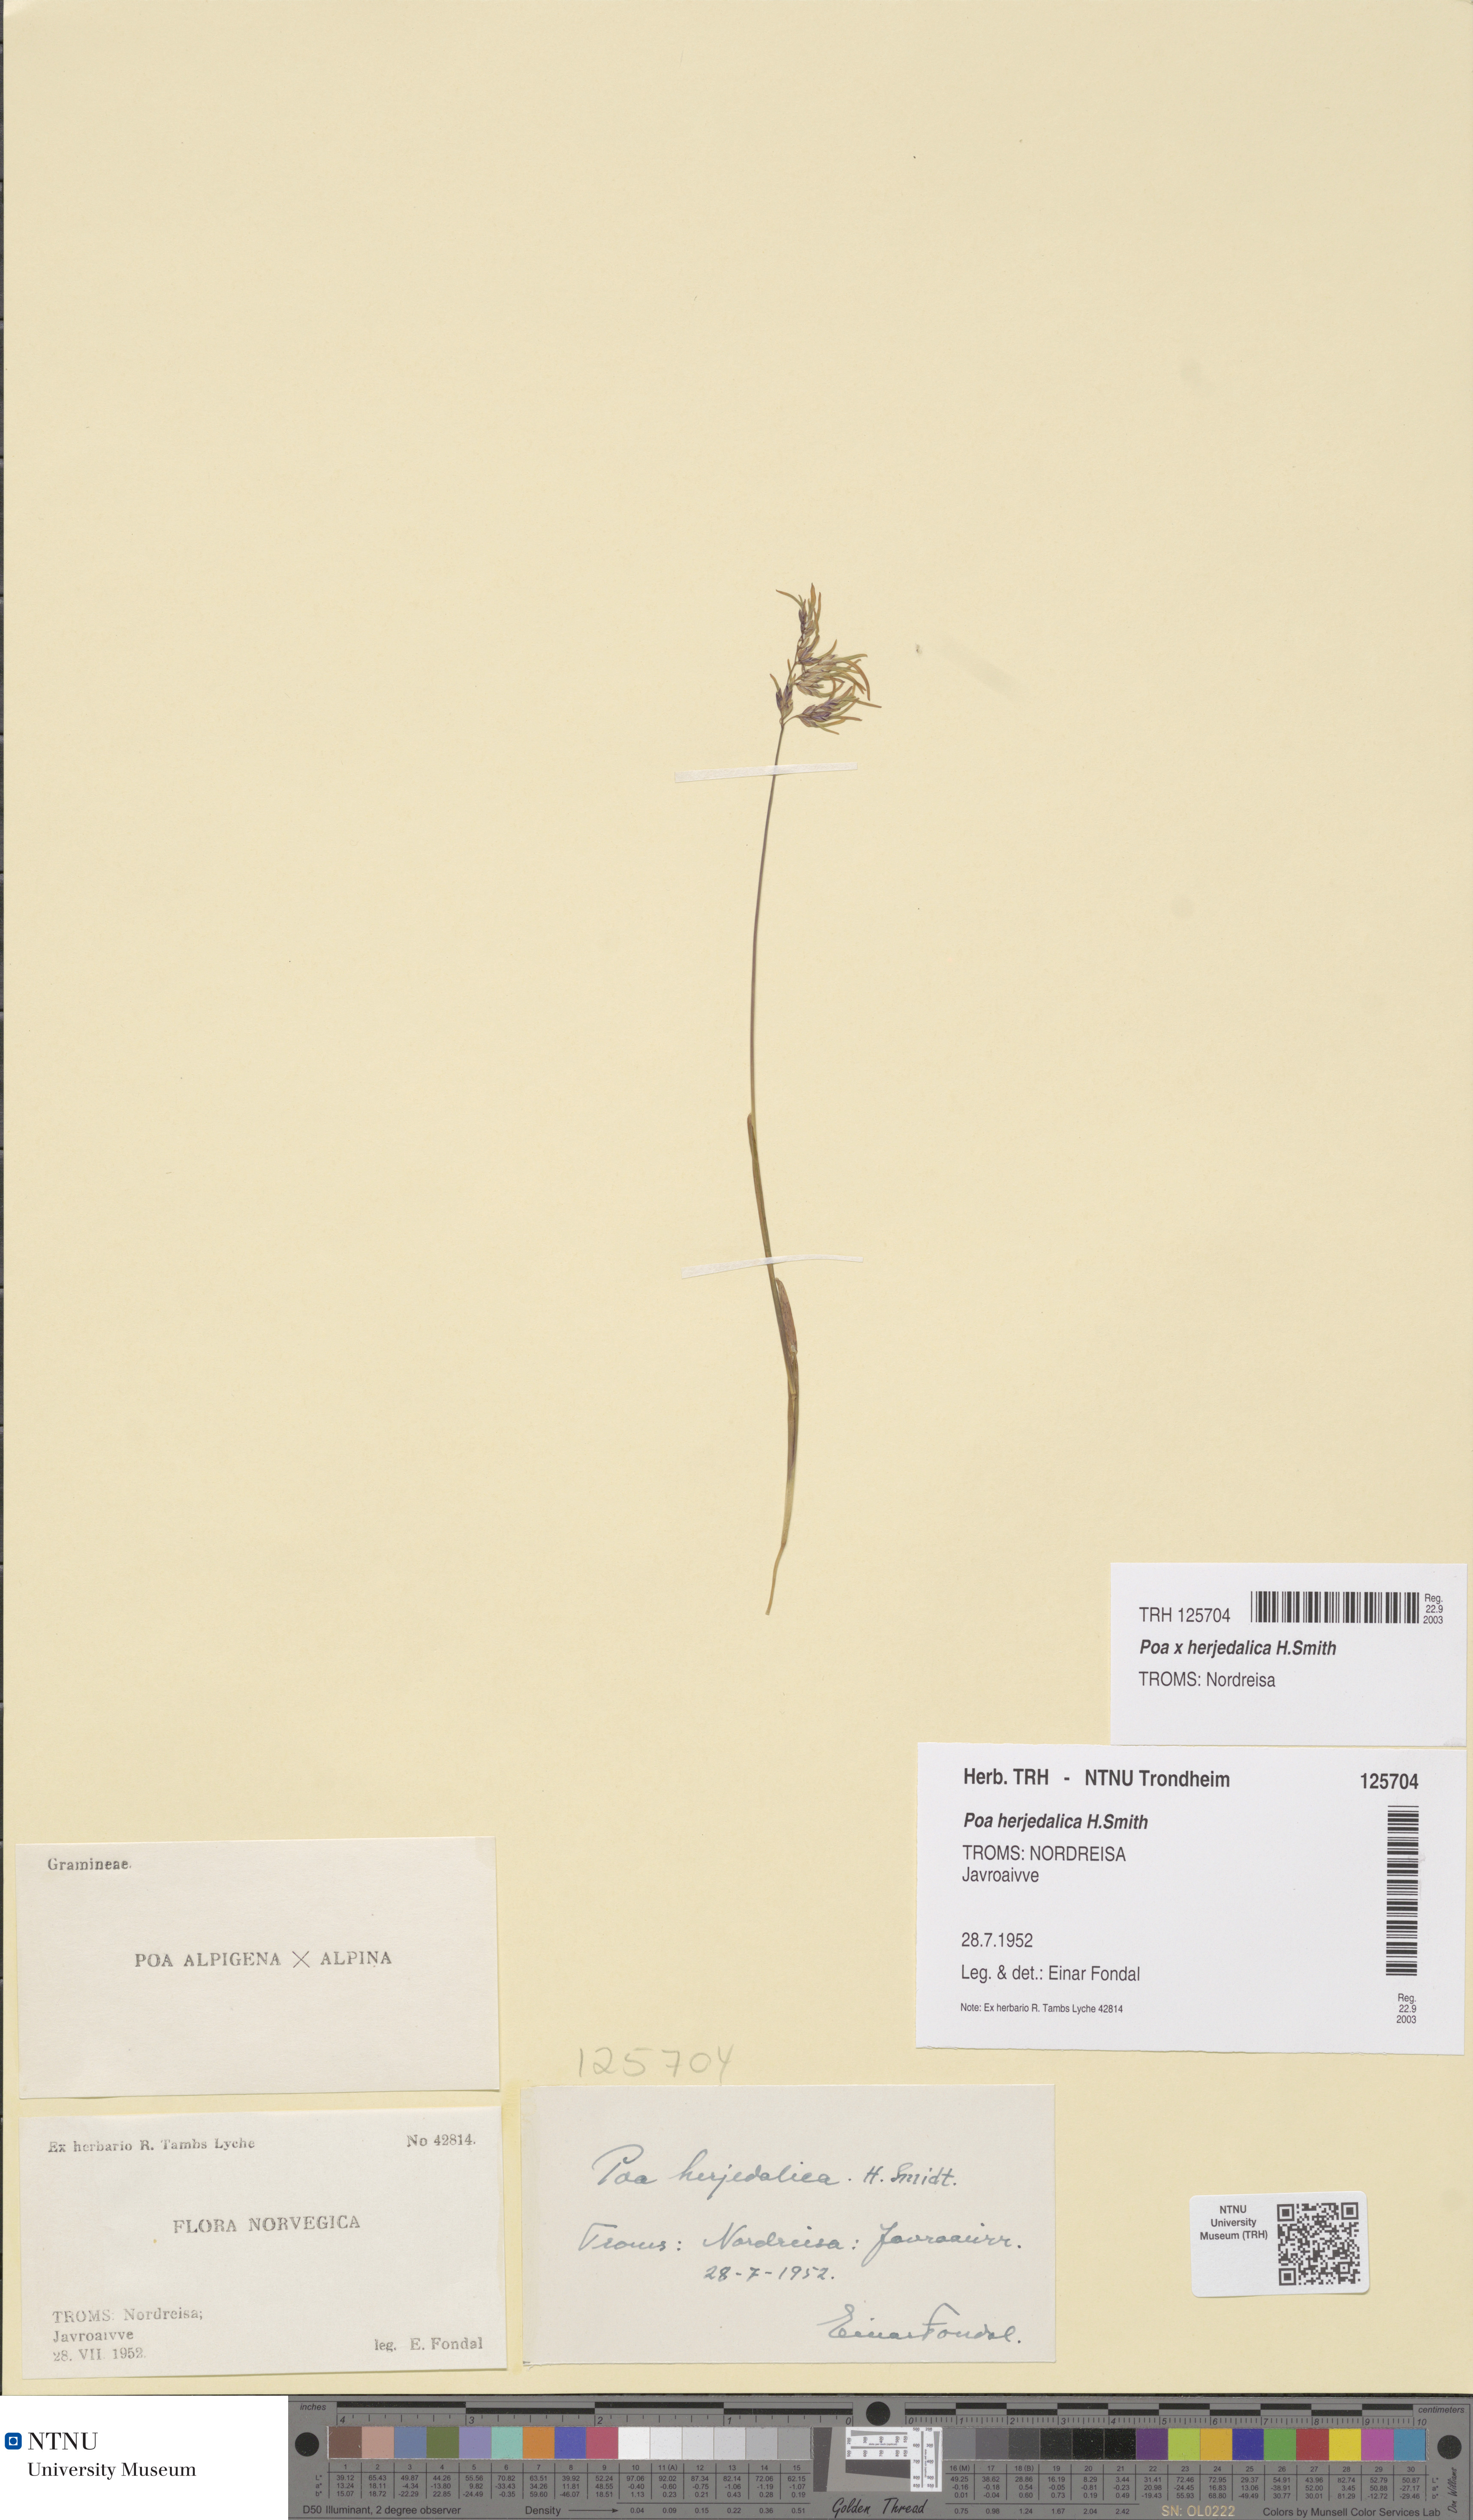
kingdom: Plantae
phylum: Tracheophyta
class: Liliopsida
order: Poales
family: Poaceae
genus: Poa
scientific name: Poa herjedalica
